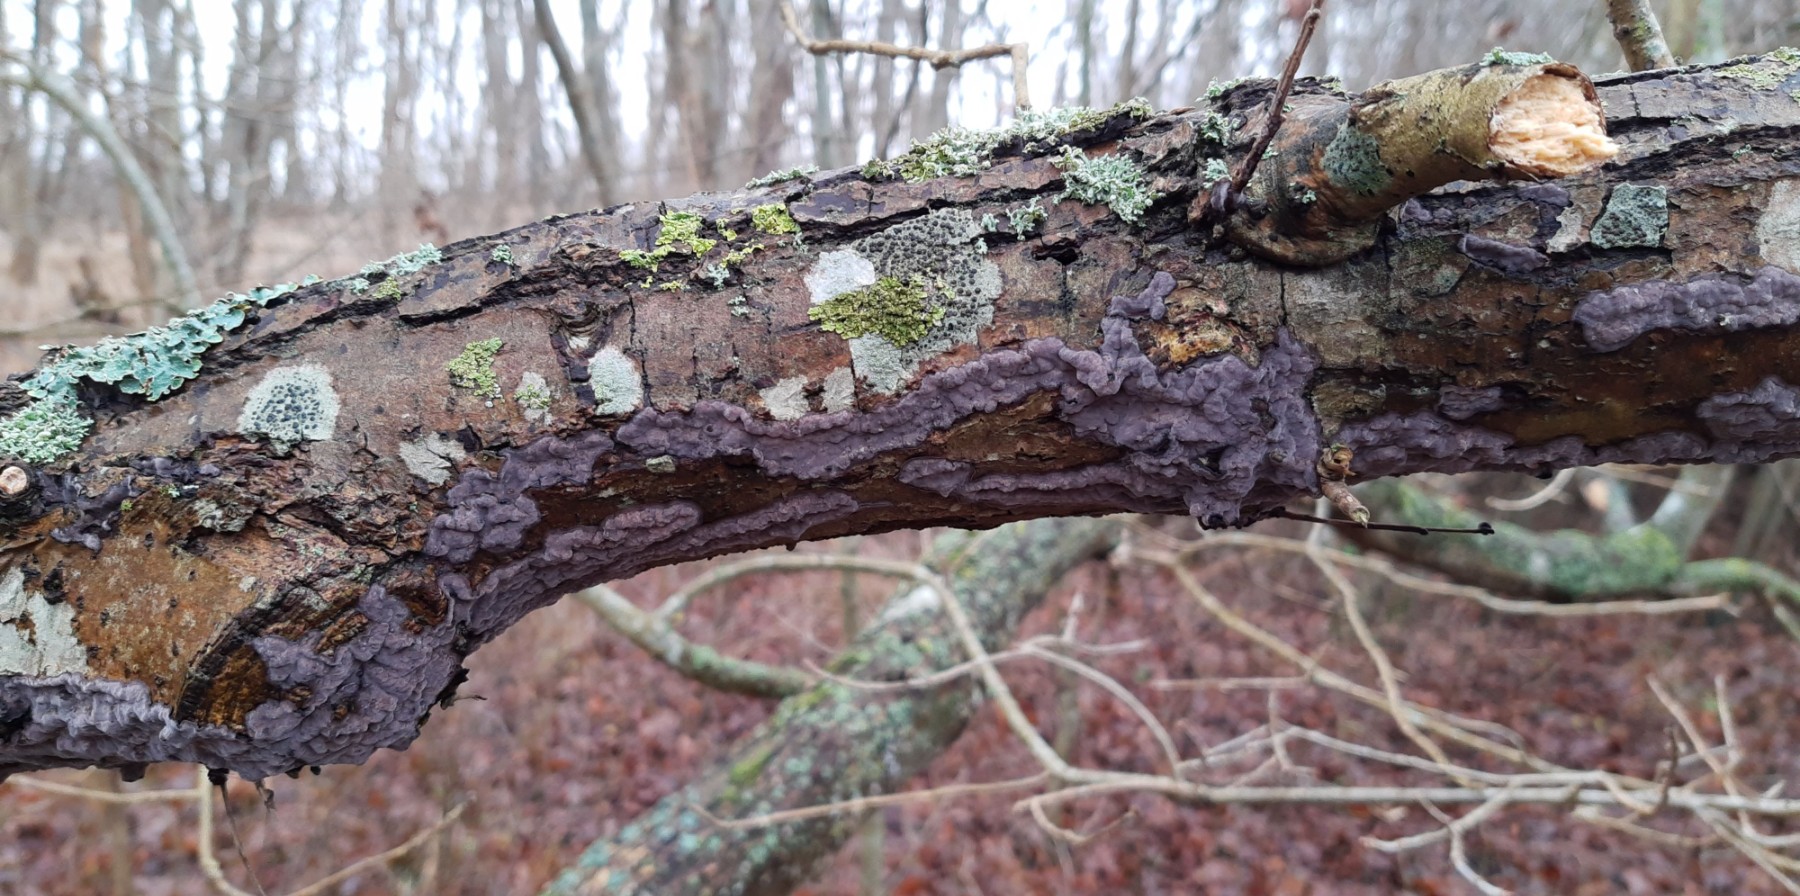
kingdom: Fungi
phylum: Basidiomycota
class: Agaricomycetes
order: Russulales
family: Peniophoraceae
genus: Peniophora
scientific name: Peniophora quercina
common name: ege-voksskind
